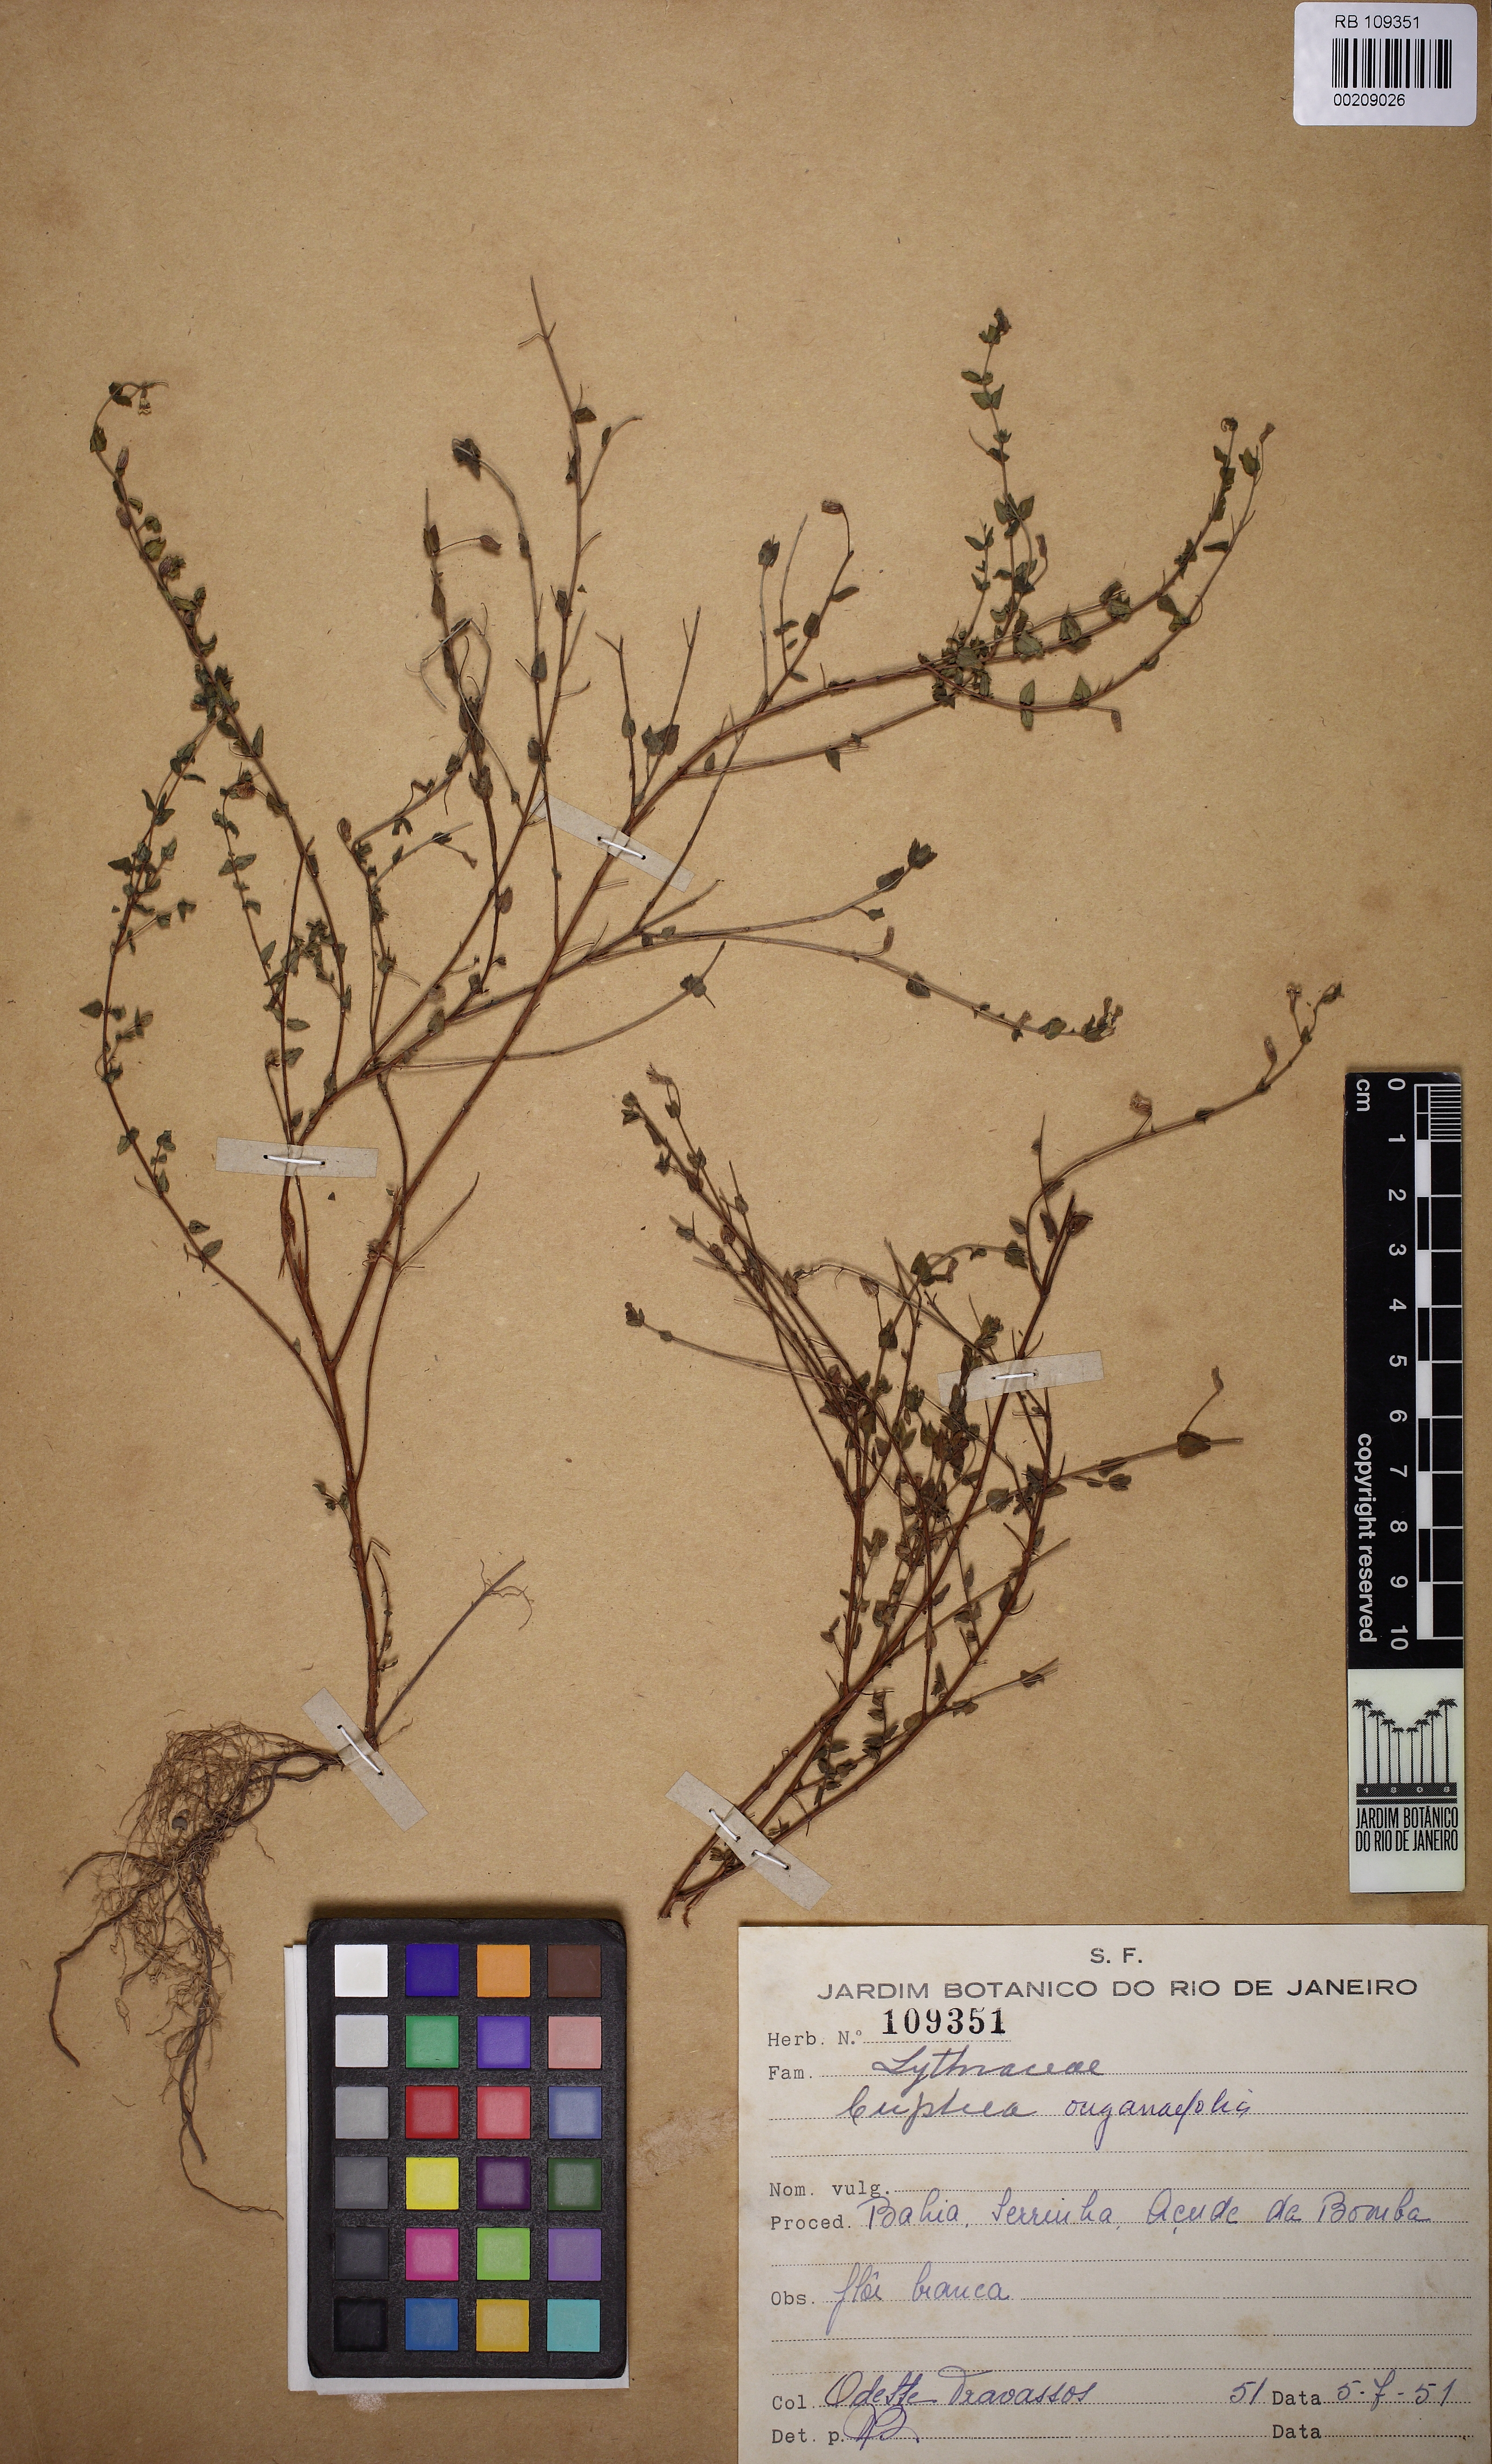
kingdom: Plantae
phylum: Tracheophyta
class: Magnoliopsida
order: Myrtales
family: Lythraceae
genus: Cuphea
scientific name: Cuphea racemosa
